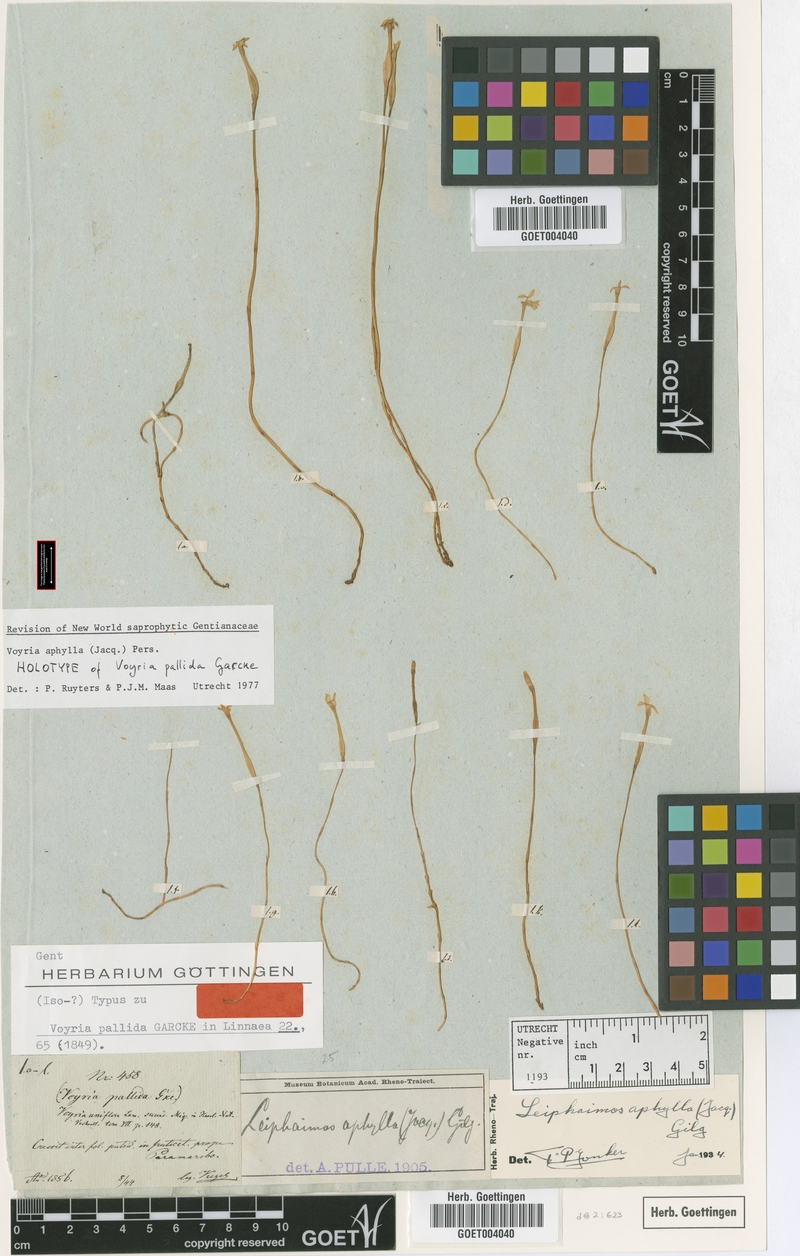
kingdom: Plantae
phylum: Tracheophyta
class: Magnoliopsida
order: Gentianales
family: Gentianaceae
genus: Voyria
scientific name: Voyria aphylla
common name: Leafless ghost plant
